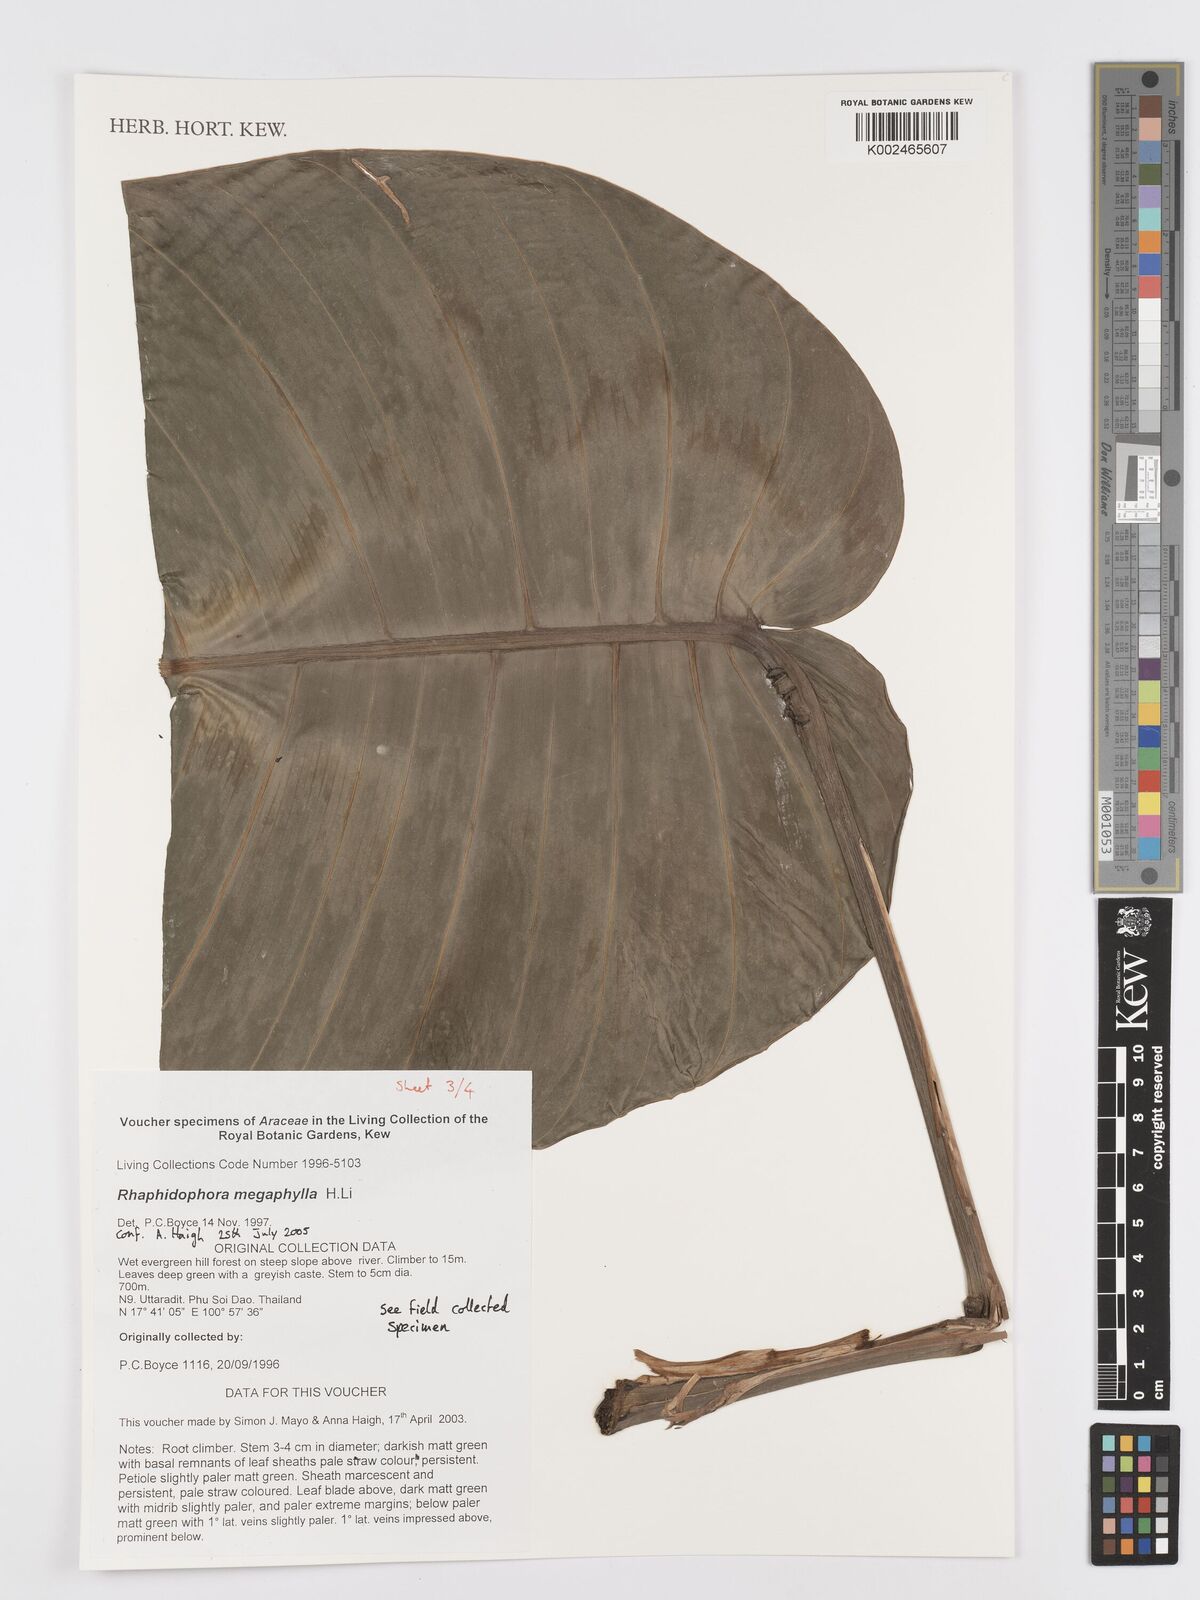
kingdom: Plantae
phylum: Tracheophyta
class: Liliopsida
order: Alismatales
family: Araceae
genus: Rhaphidophora
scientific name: Rhaphidophora megaphylla
